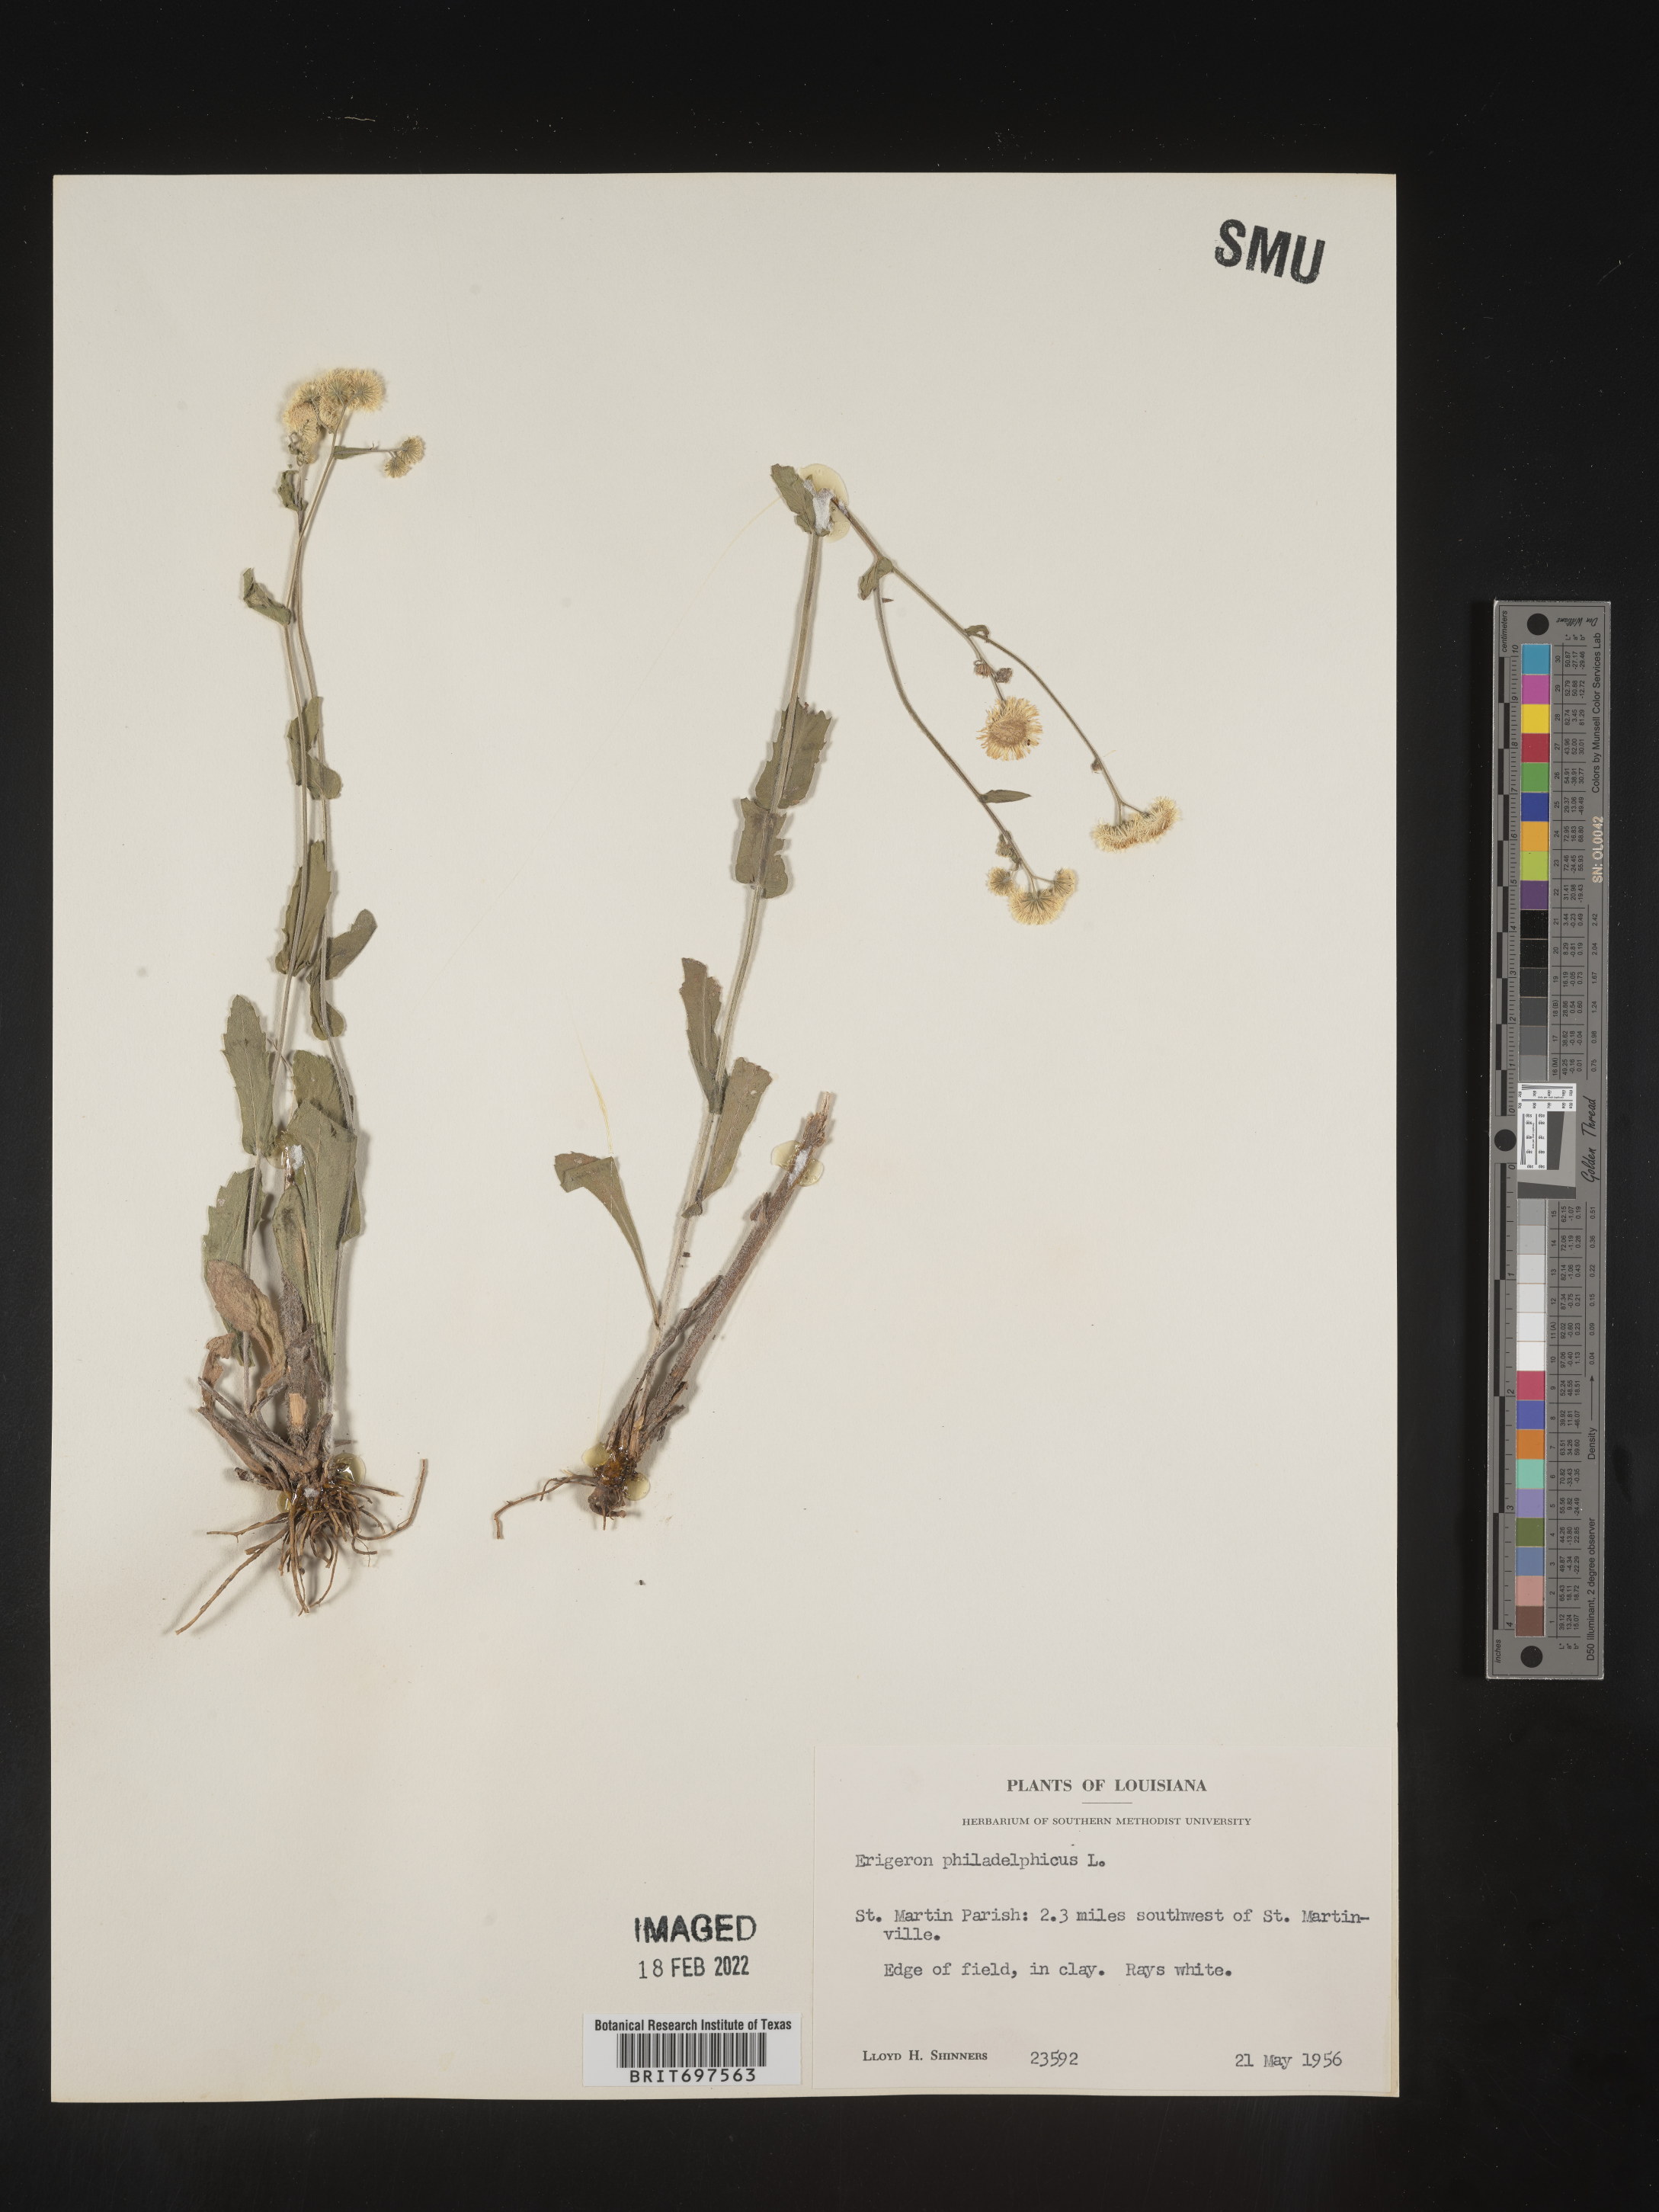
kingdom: Plantae
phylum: Tracheophyta
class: Magnoliopsida
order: Asterales
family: Asteraceae
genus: Erigeron
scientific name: Erigeron philadelphicus
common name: Robin's-plantain
